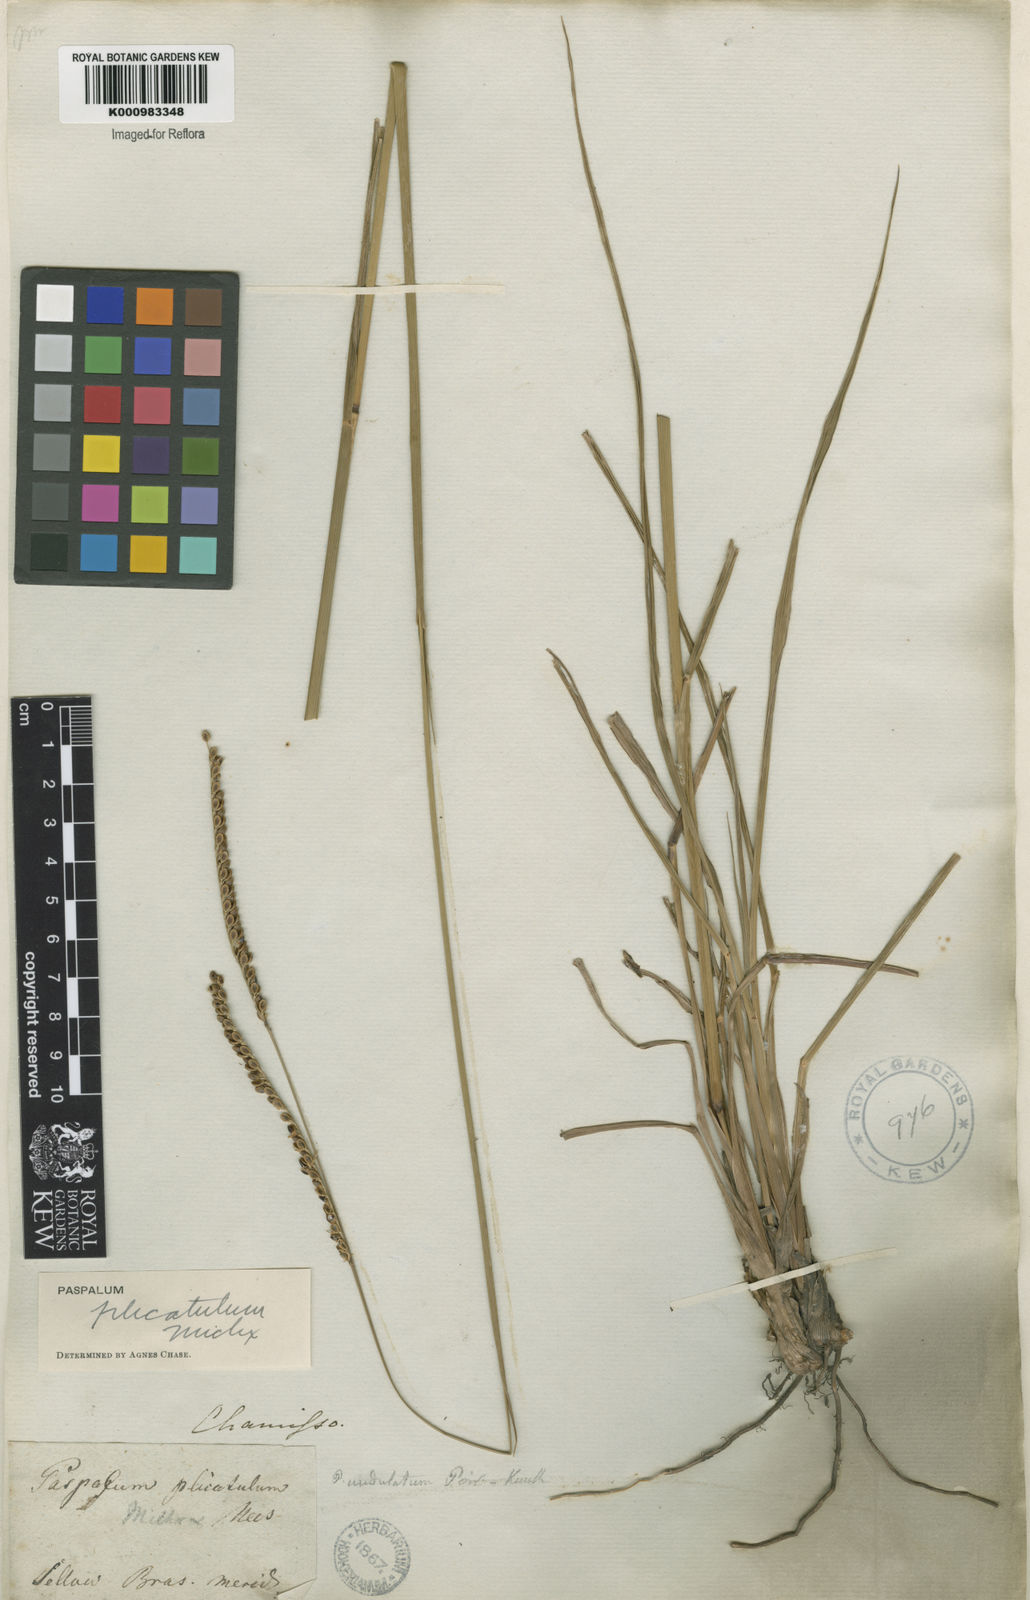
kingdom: Plantae
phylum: Tracheophyta
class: Liliopsida
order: Poales
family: Poaceae
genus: Paspalum
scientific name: Paspalum plicatulum
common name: Top paspalum
